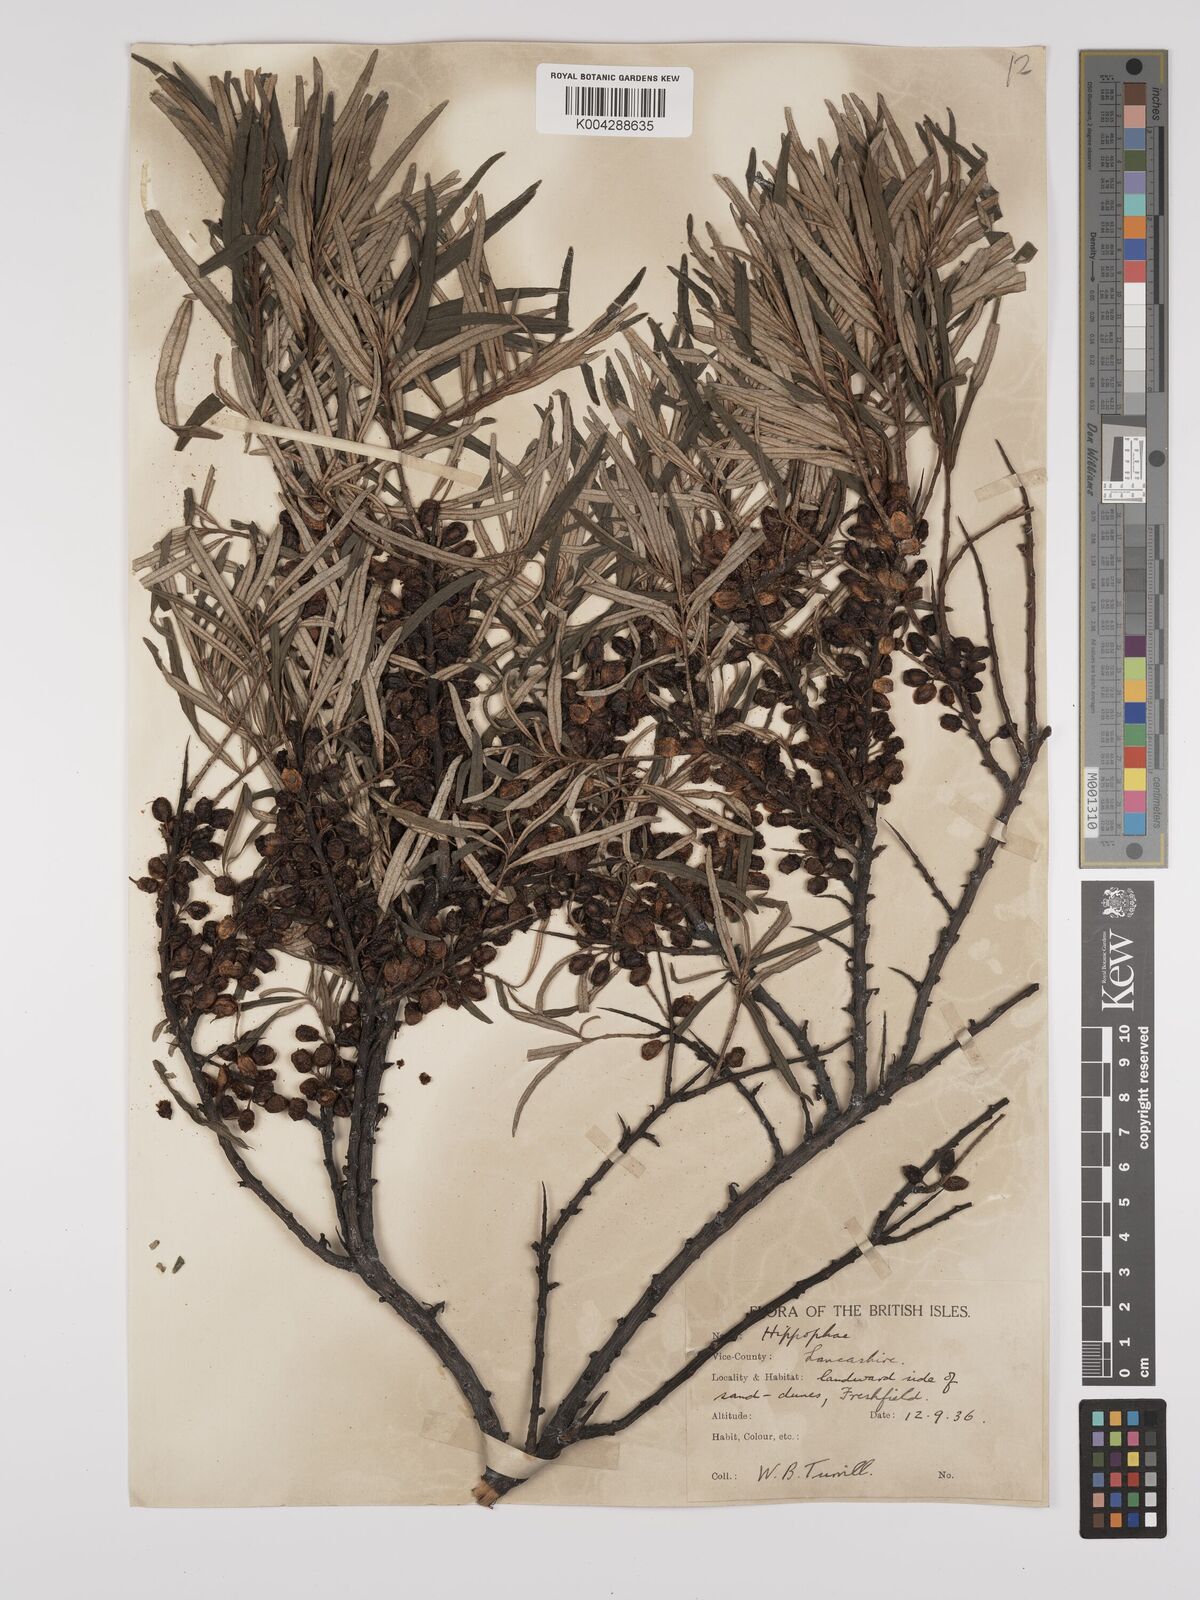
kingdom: Plantae
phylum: Tracheophyta
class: Magnoliopsida
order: Rosales
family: Elaeagnaceae
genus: Hippophae
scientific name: Hippophae rhamnoides
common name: Sea-buckthorn
